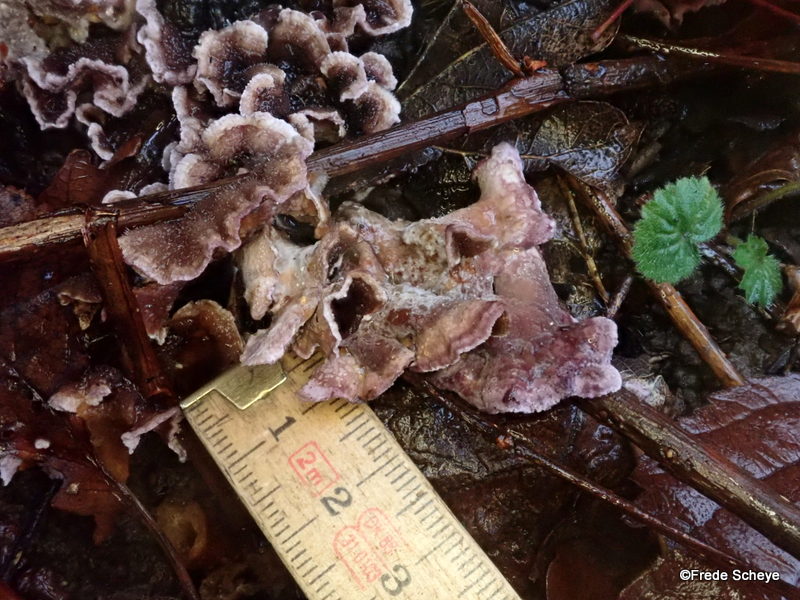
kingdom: Fungi
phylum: Basidiomycota
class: Agaricomycetes
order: Agaricales
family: Cyphellaceae
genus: Chondrostereum
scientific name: Chondrostereum purpureum
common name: purpurlædersvamp
